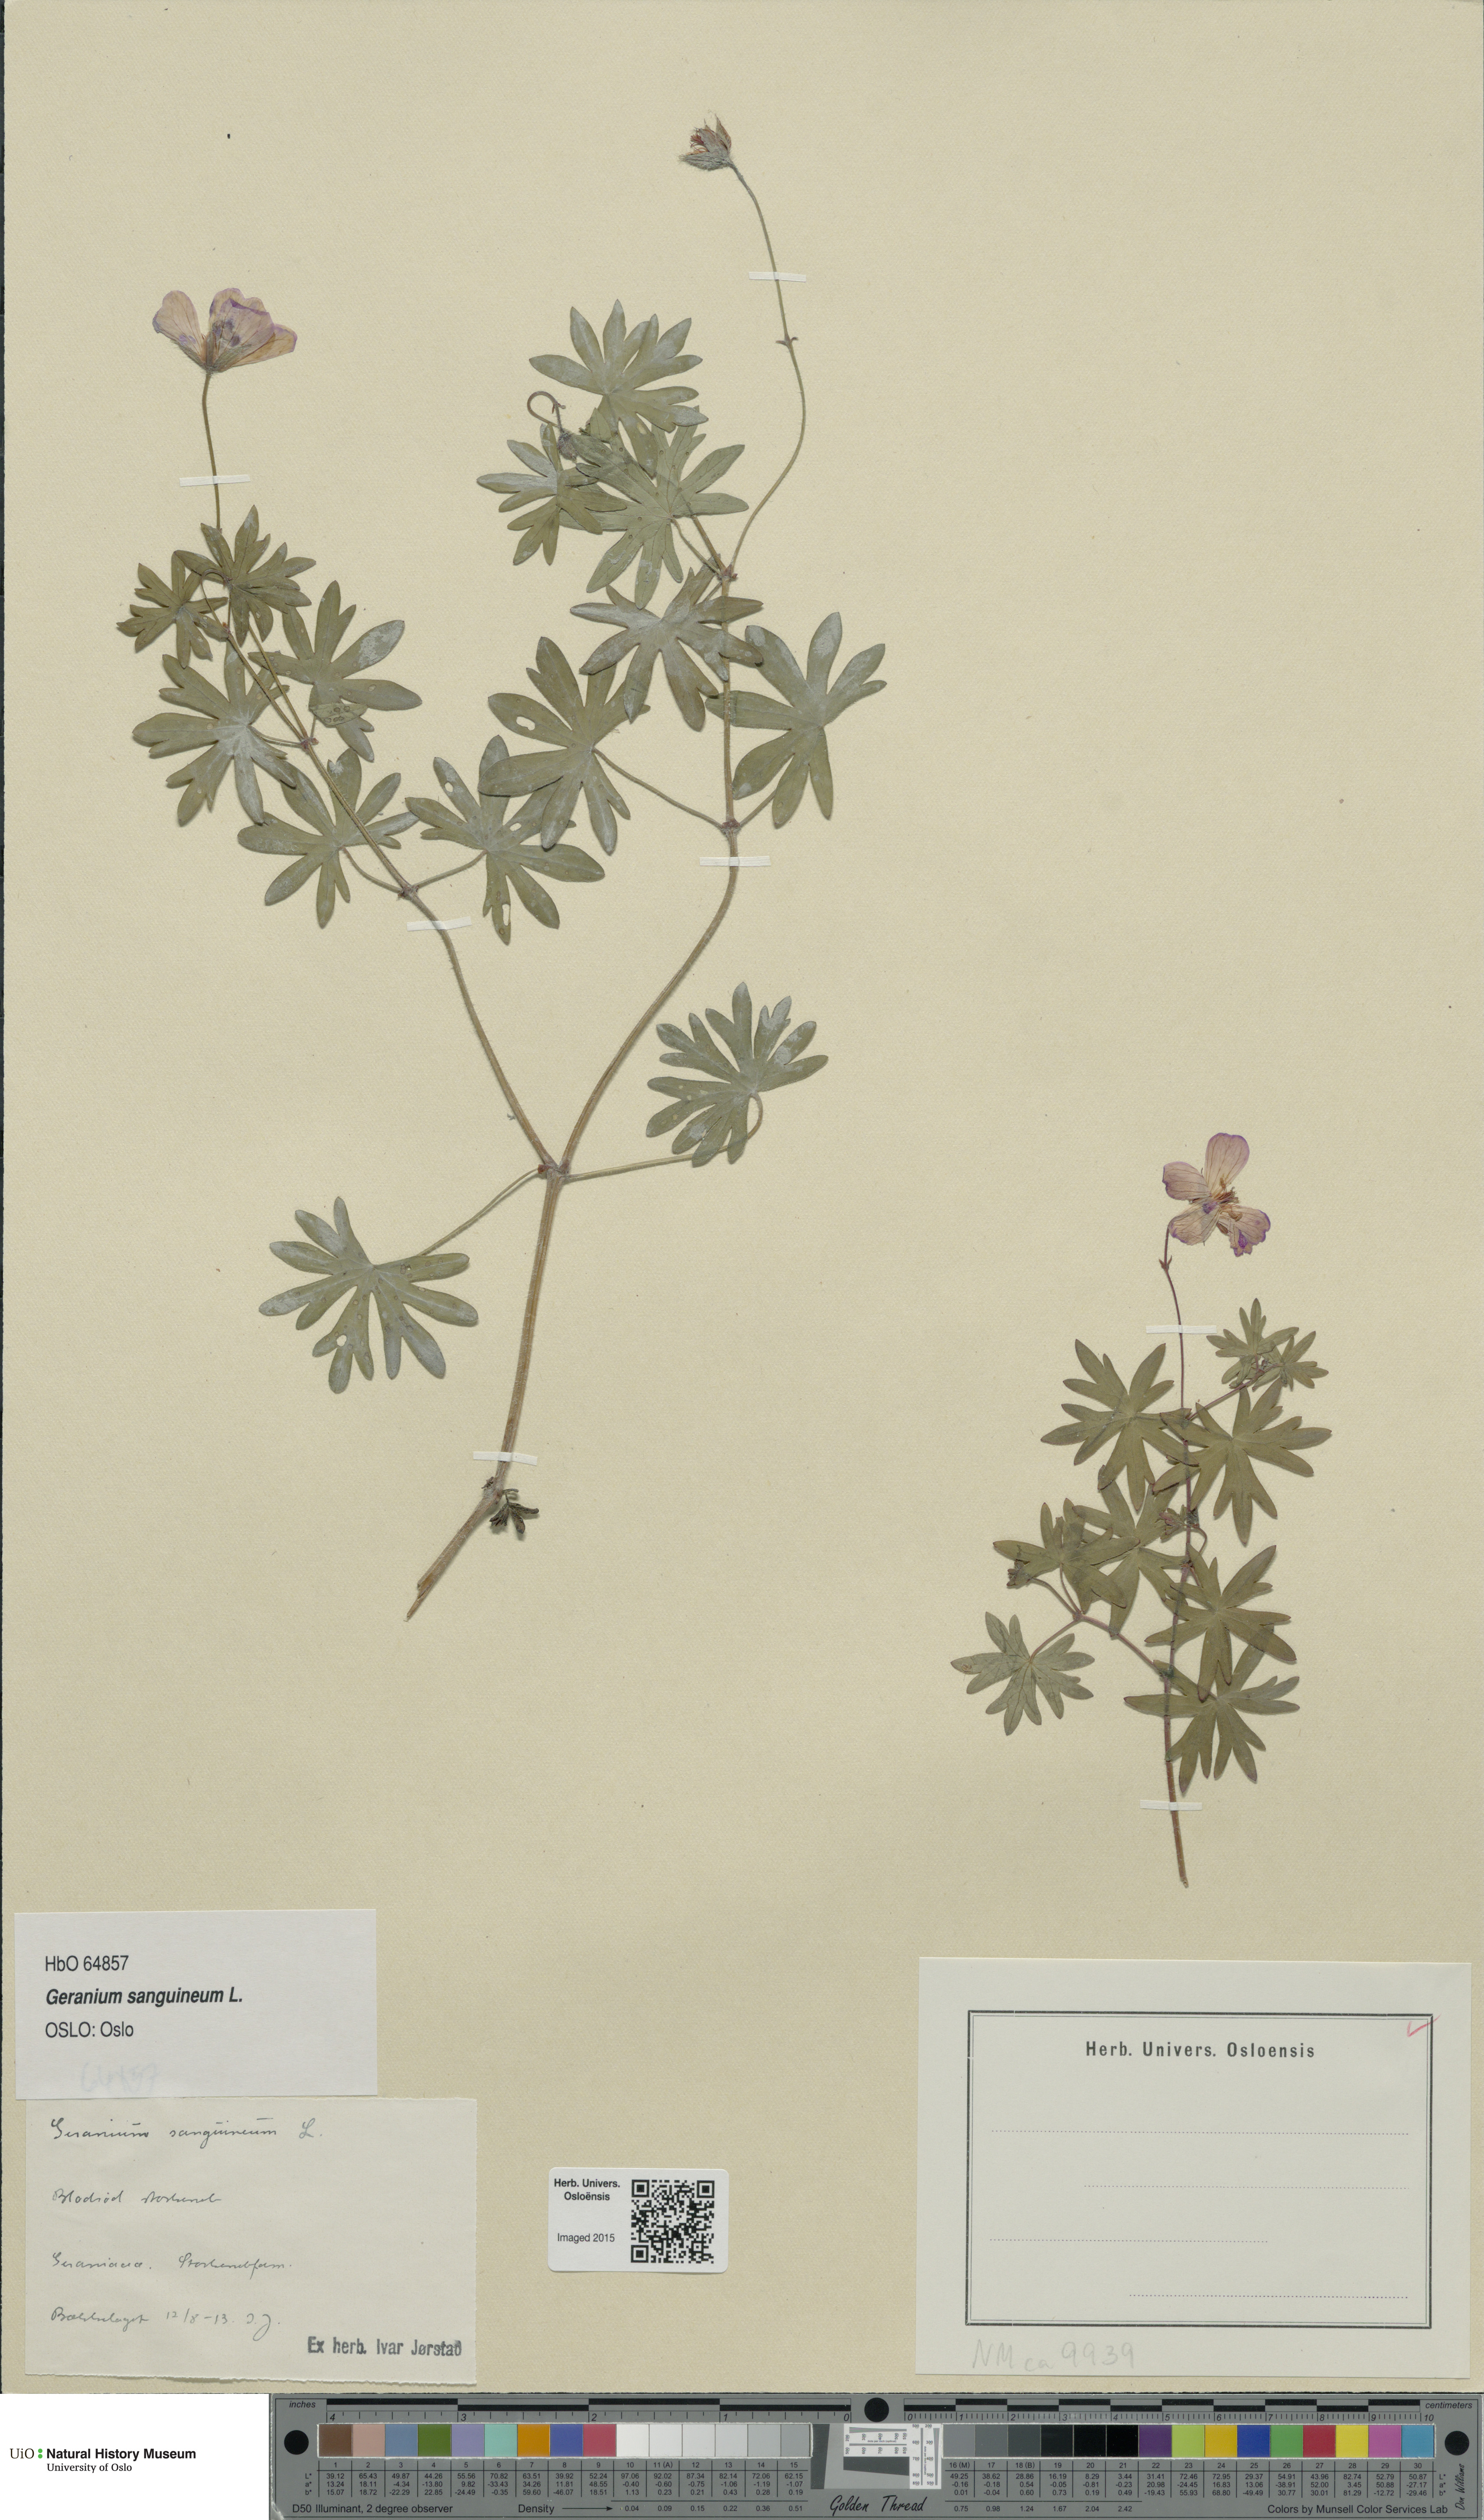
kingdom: Plantae
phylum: Tracheophyta
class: Magnoliopsida
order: Geraniales
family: Geraniaceae
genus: Geranium
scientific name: Geranium sanguineum
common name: Bloody crane's-bill
